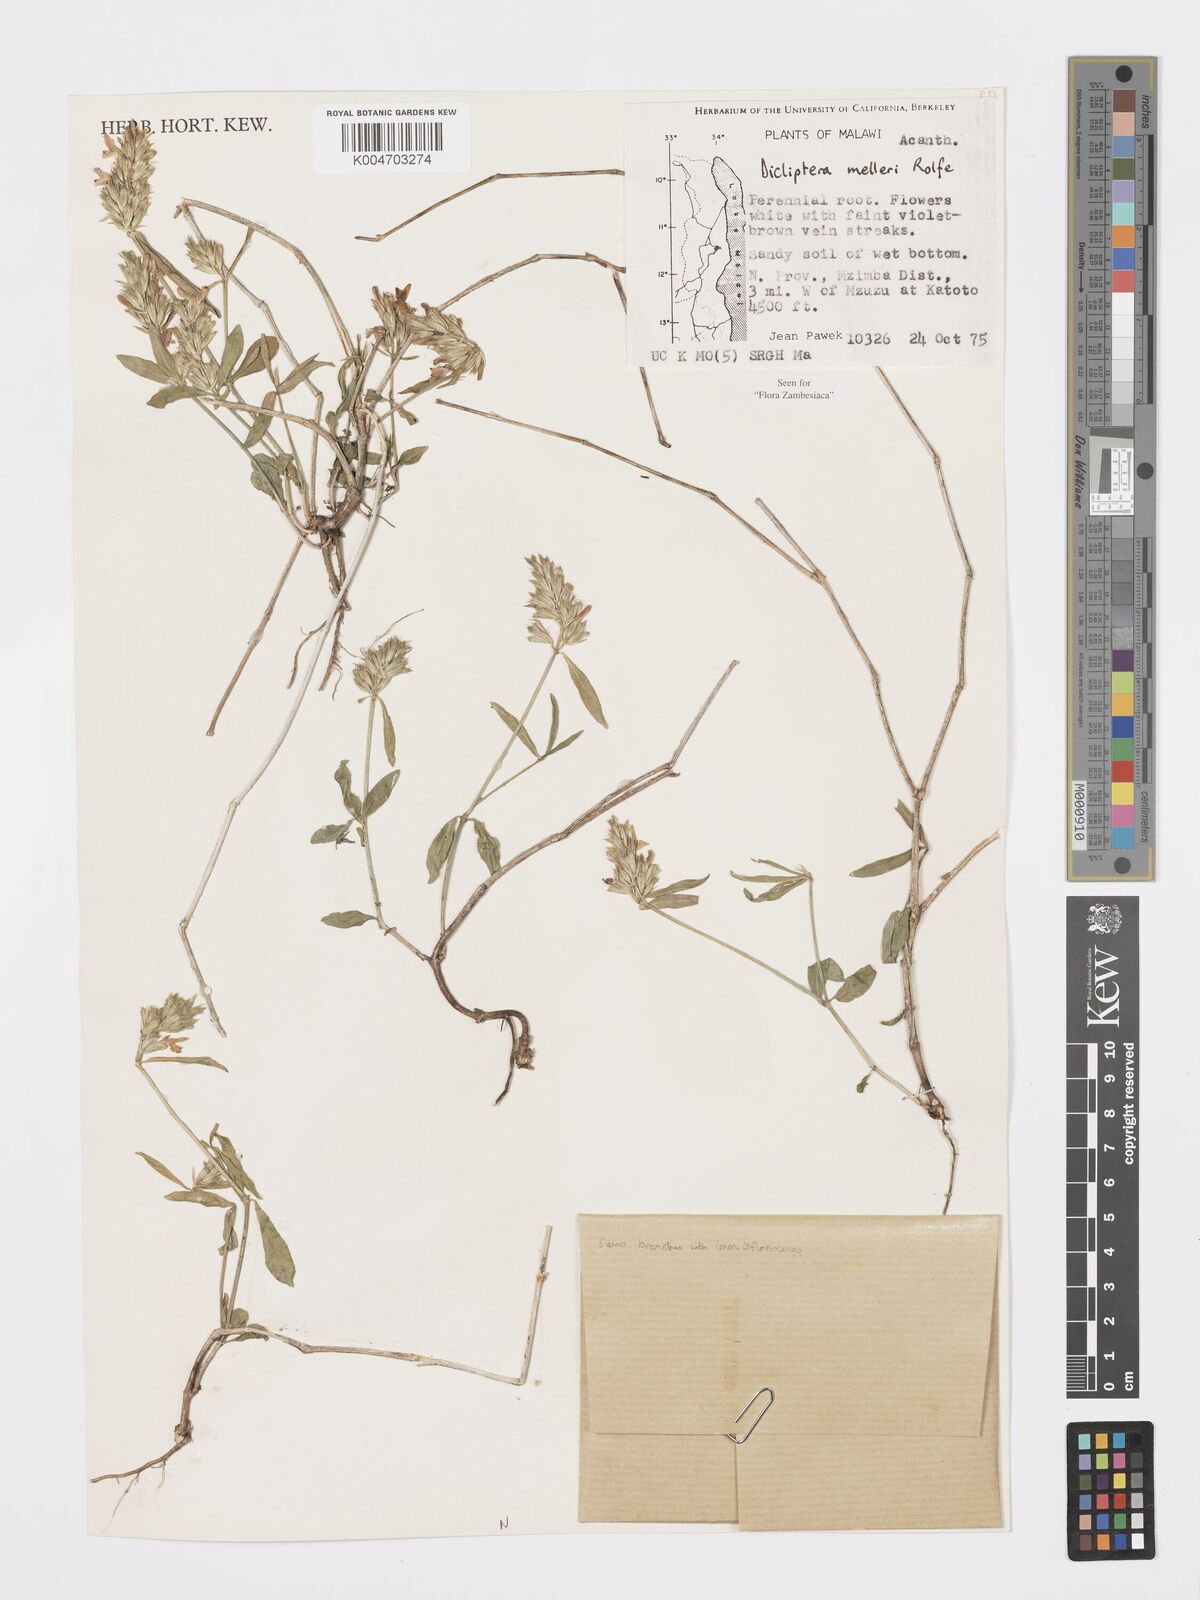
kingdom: Plantae
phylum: Tracheophyta
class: Magnoliopsida
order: Lamiales
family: Acanthaceae
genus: Dicliptera
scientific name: Dicliptera melleri
